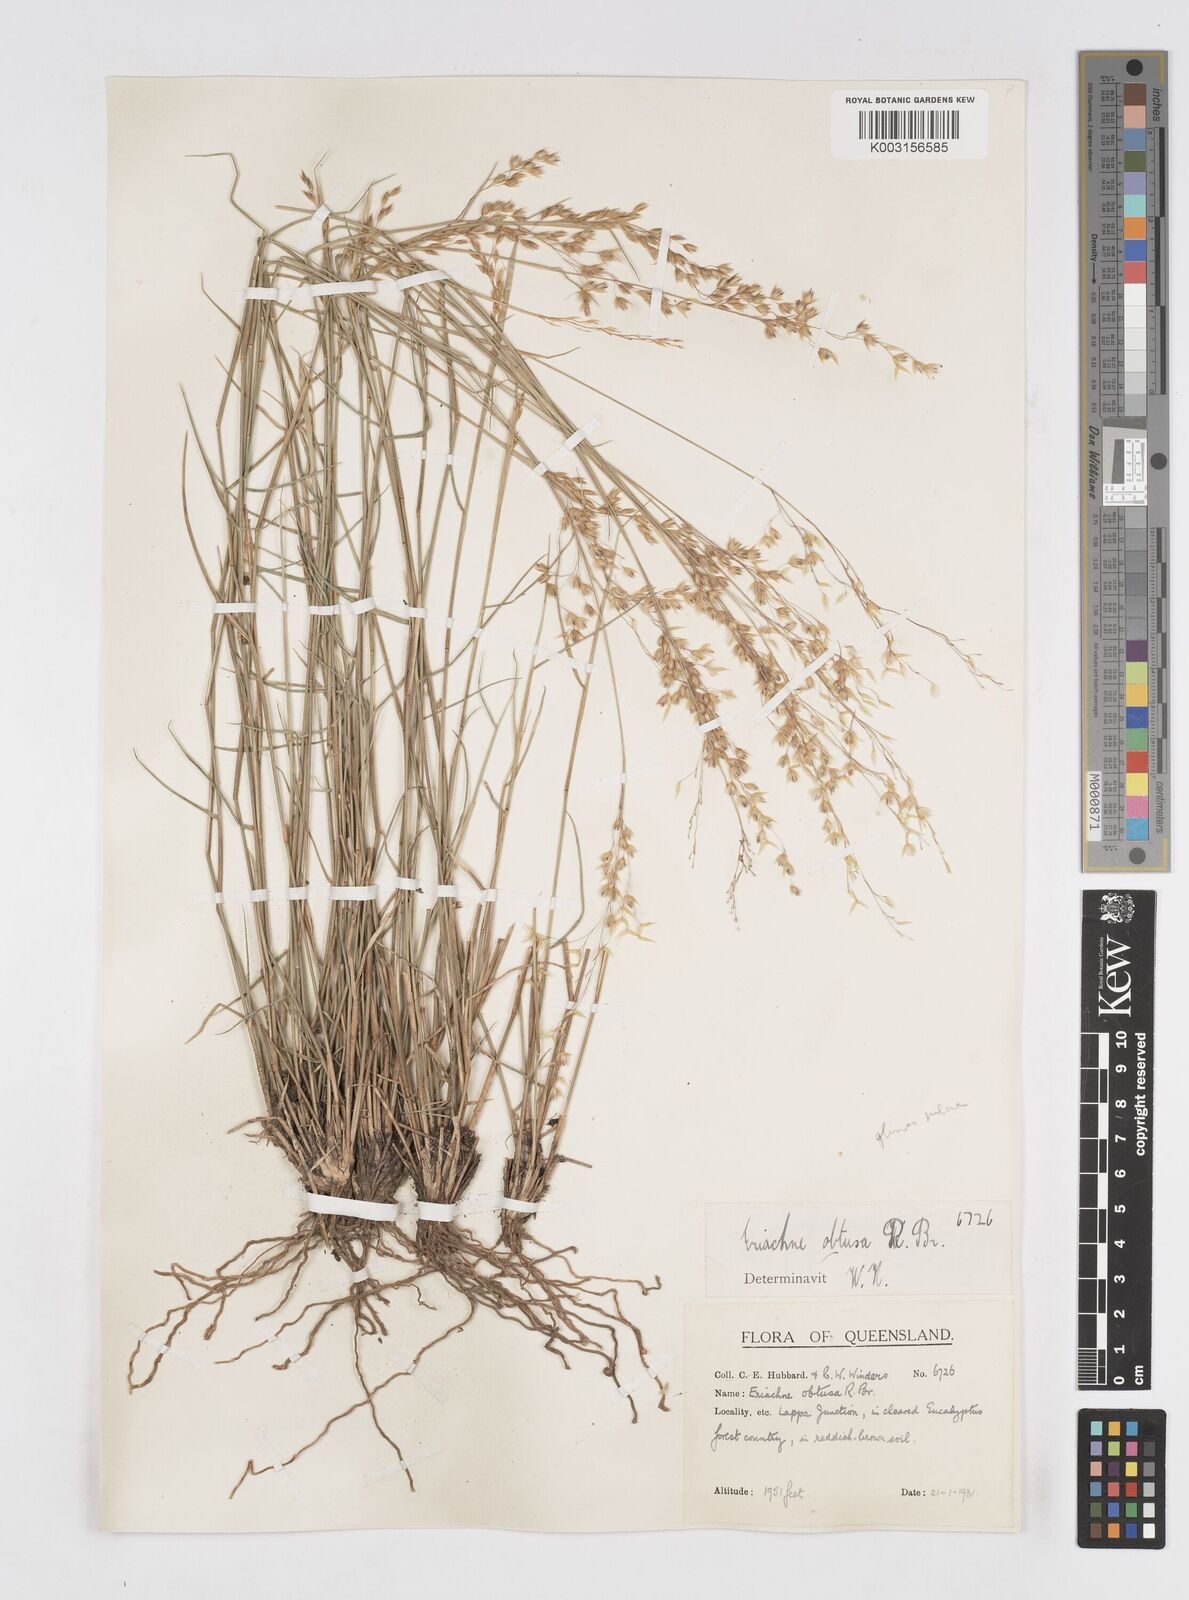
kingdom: Plantae
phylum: Tracheophyta
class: Liliopsida
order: Poales
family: Poaceae
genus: Eriachne
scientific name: Eriachne obtusa
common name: Northern wanderrie grass
